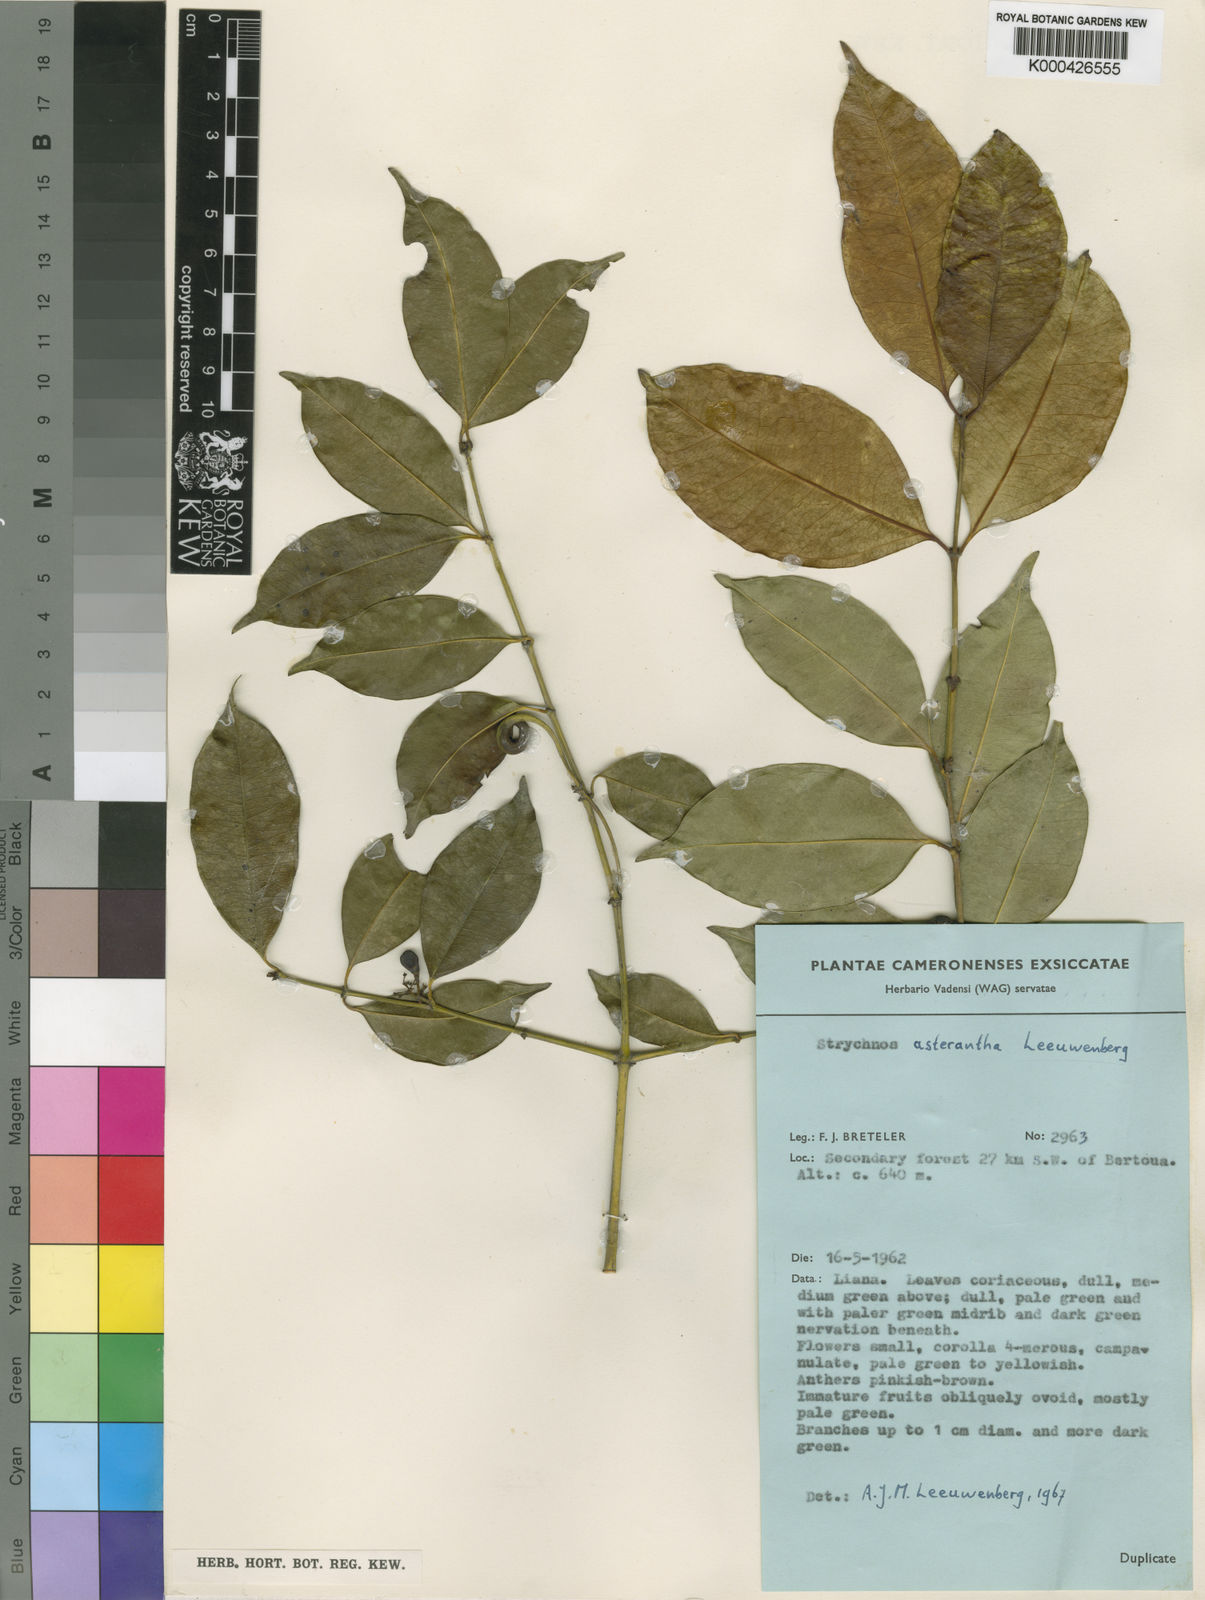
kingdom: Plantae
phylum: Tracheophyta
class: Magnoliopsida
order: Gentianales
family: Loganiaceae
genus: Strychnos
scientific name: Strychnos asterantha
